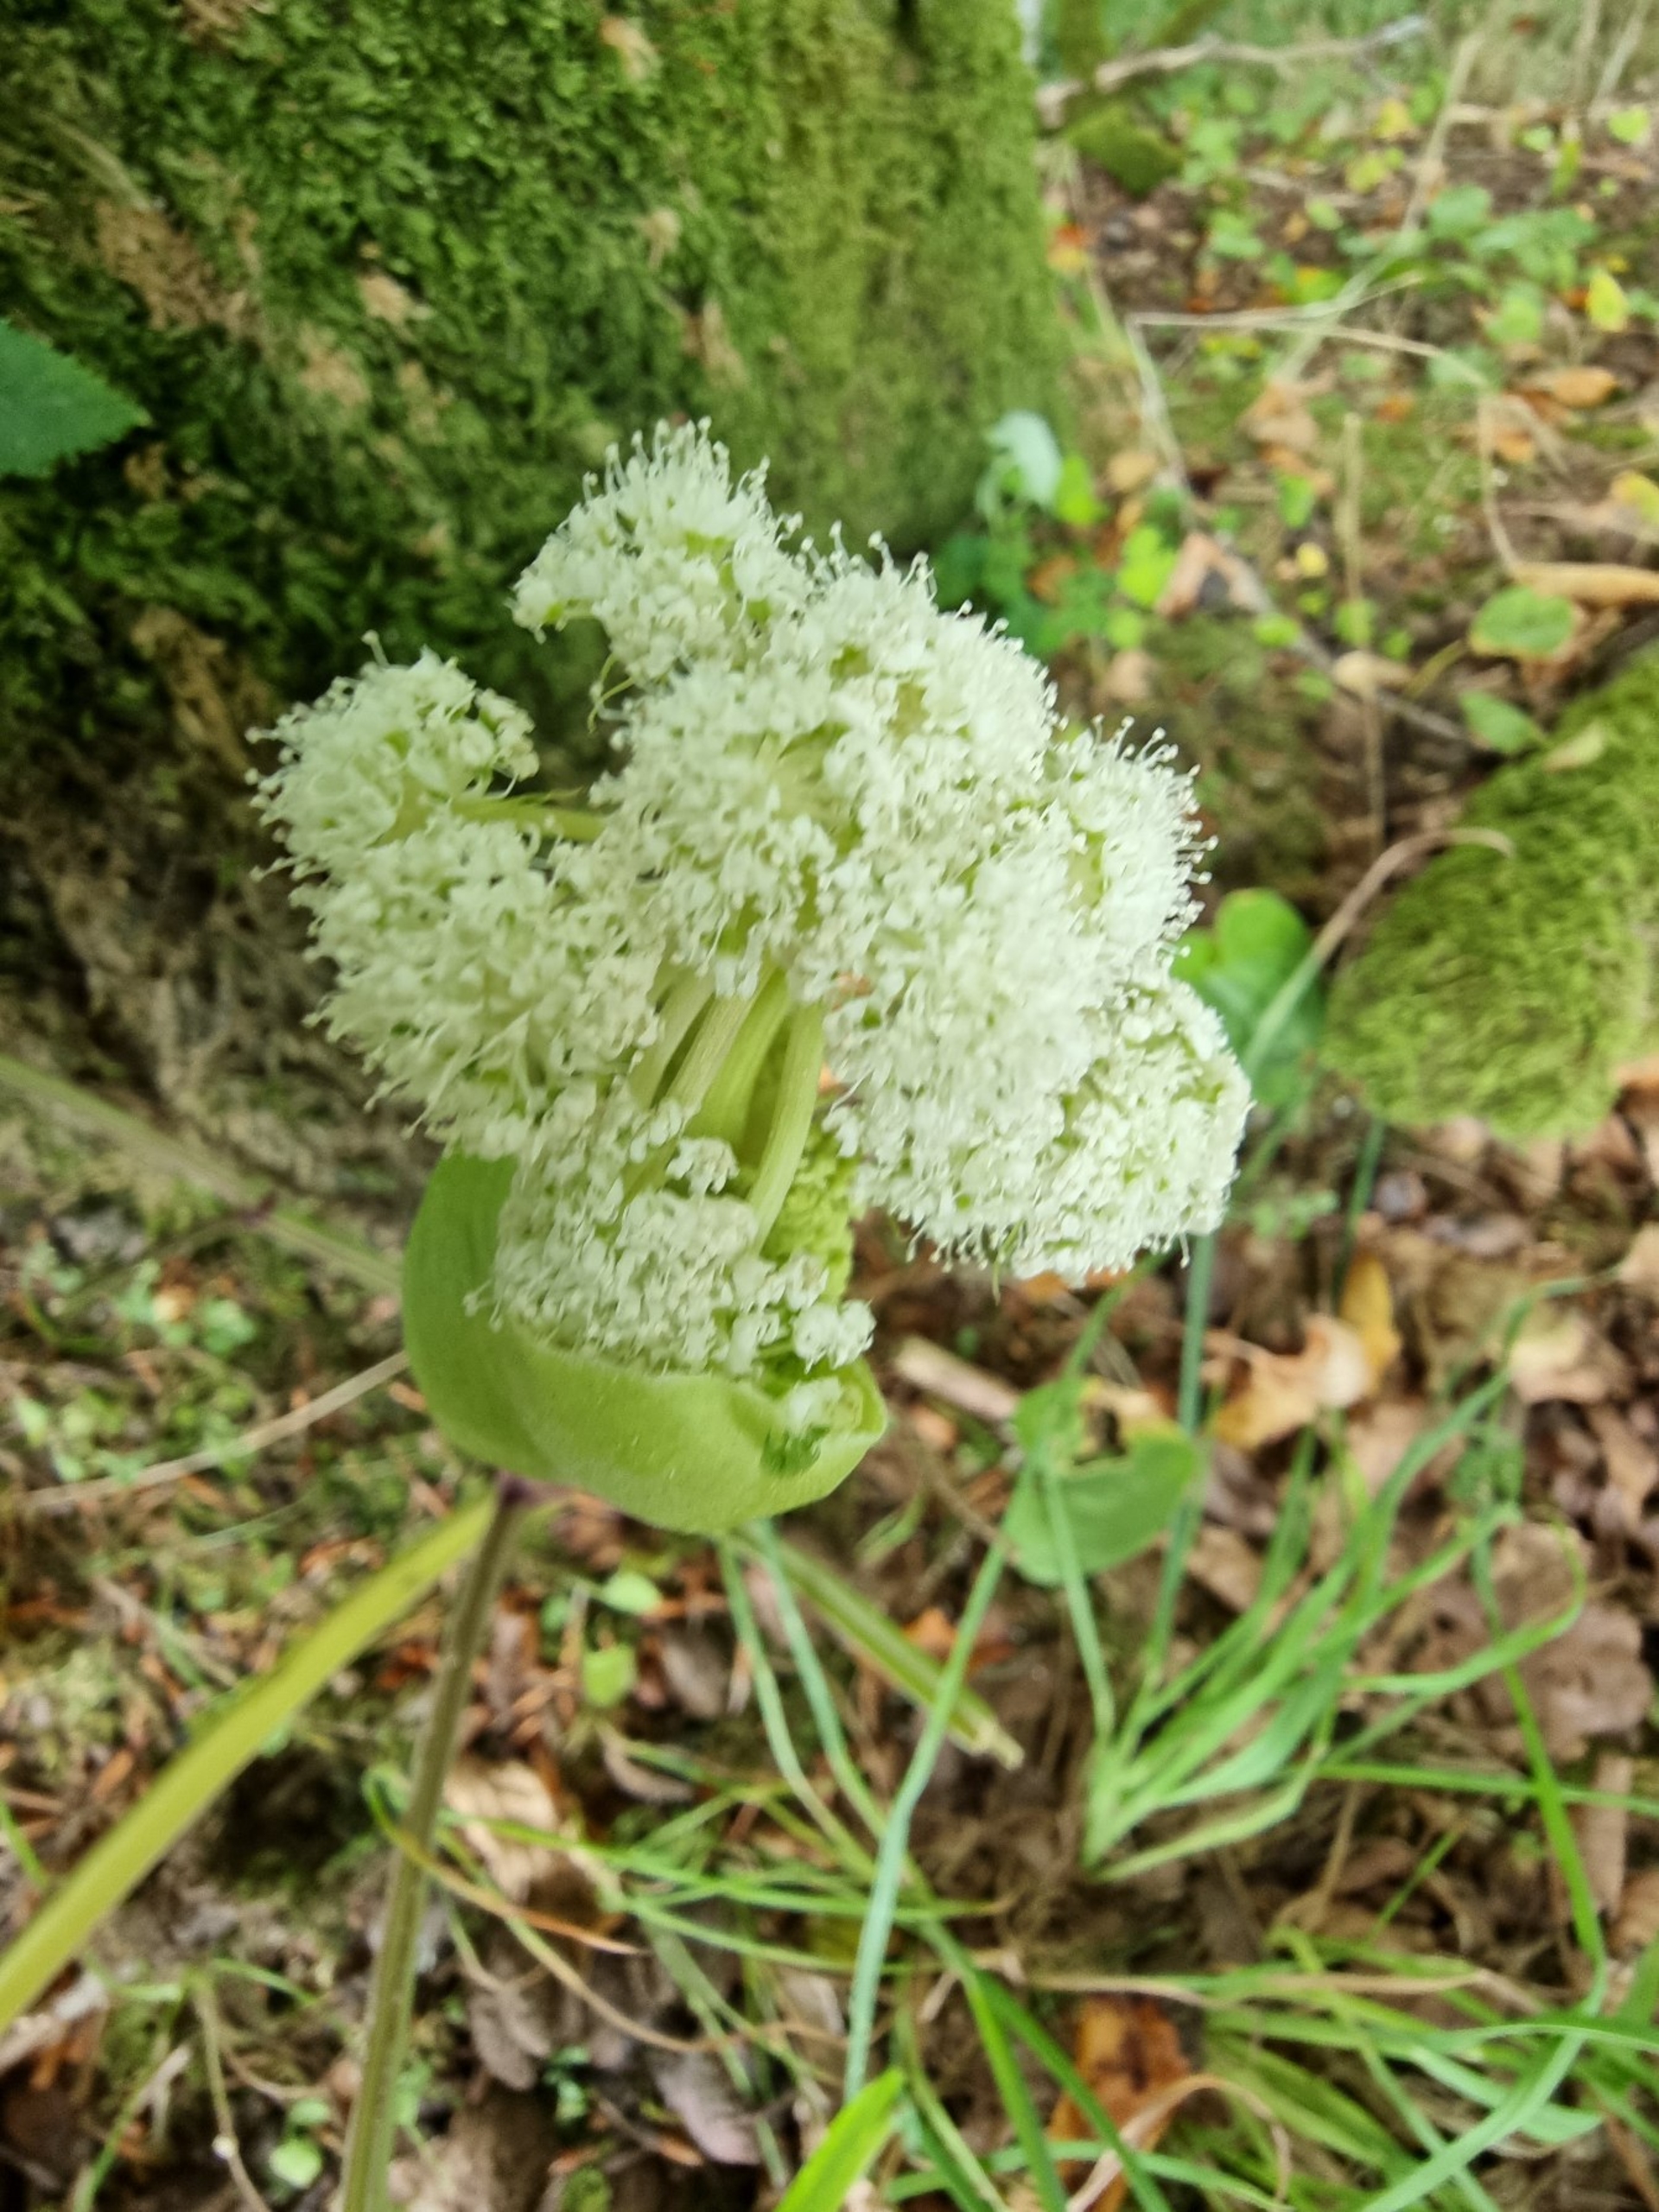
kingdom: Plantae
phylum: Tracheophyta
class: Magnoliopsida
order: Apiales
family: Apiaceae
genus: Angelica
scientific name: Angelica sylvestris
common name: Angelik
